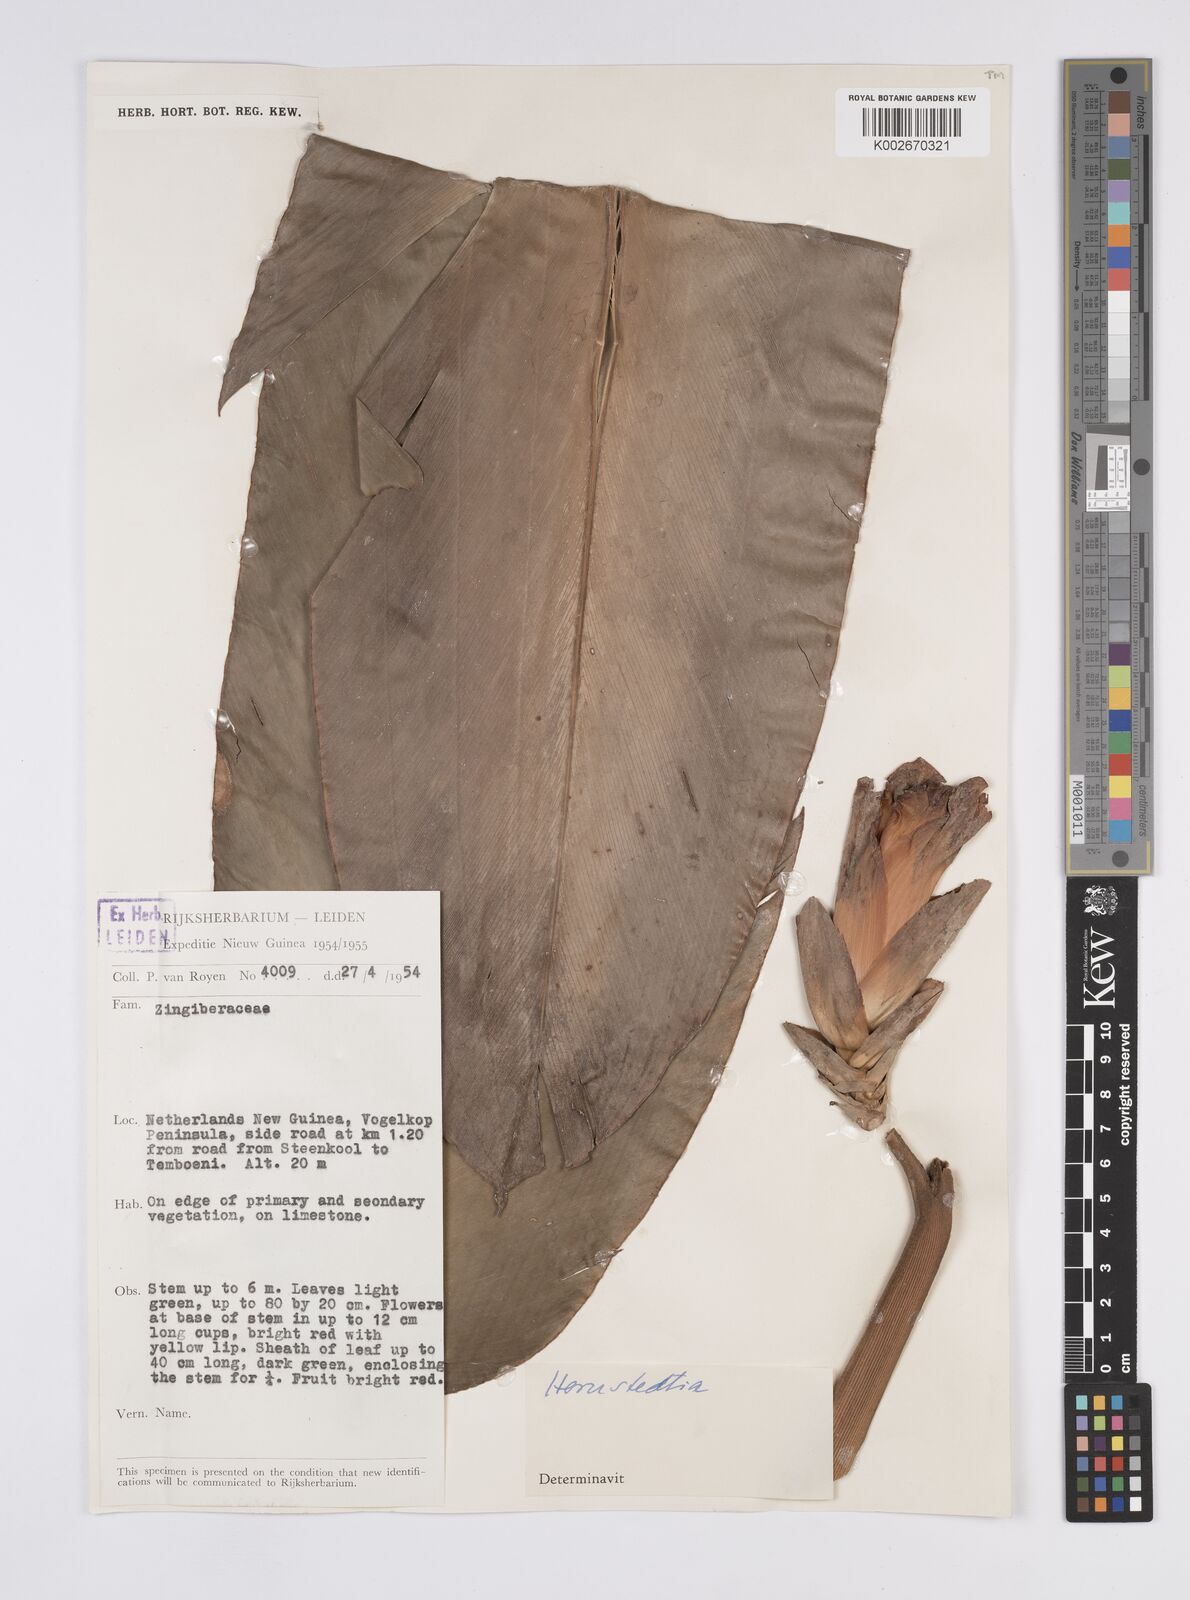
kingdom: Plantae
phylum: Tracheophyta
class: Liliopsida
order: Zingiberales
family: Zingiberaceae
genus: Hornstedtia
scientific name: Hornstedtia
